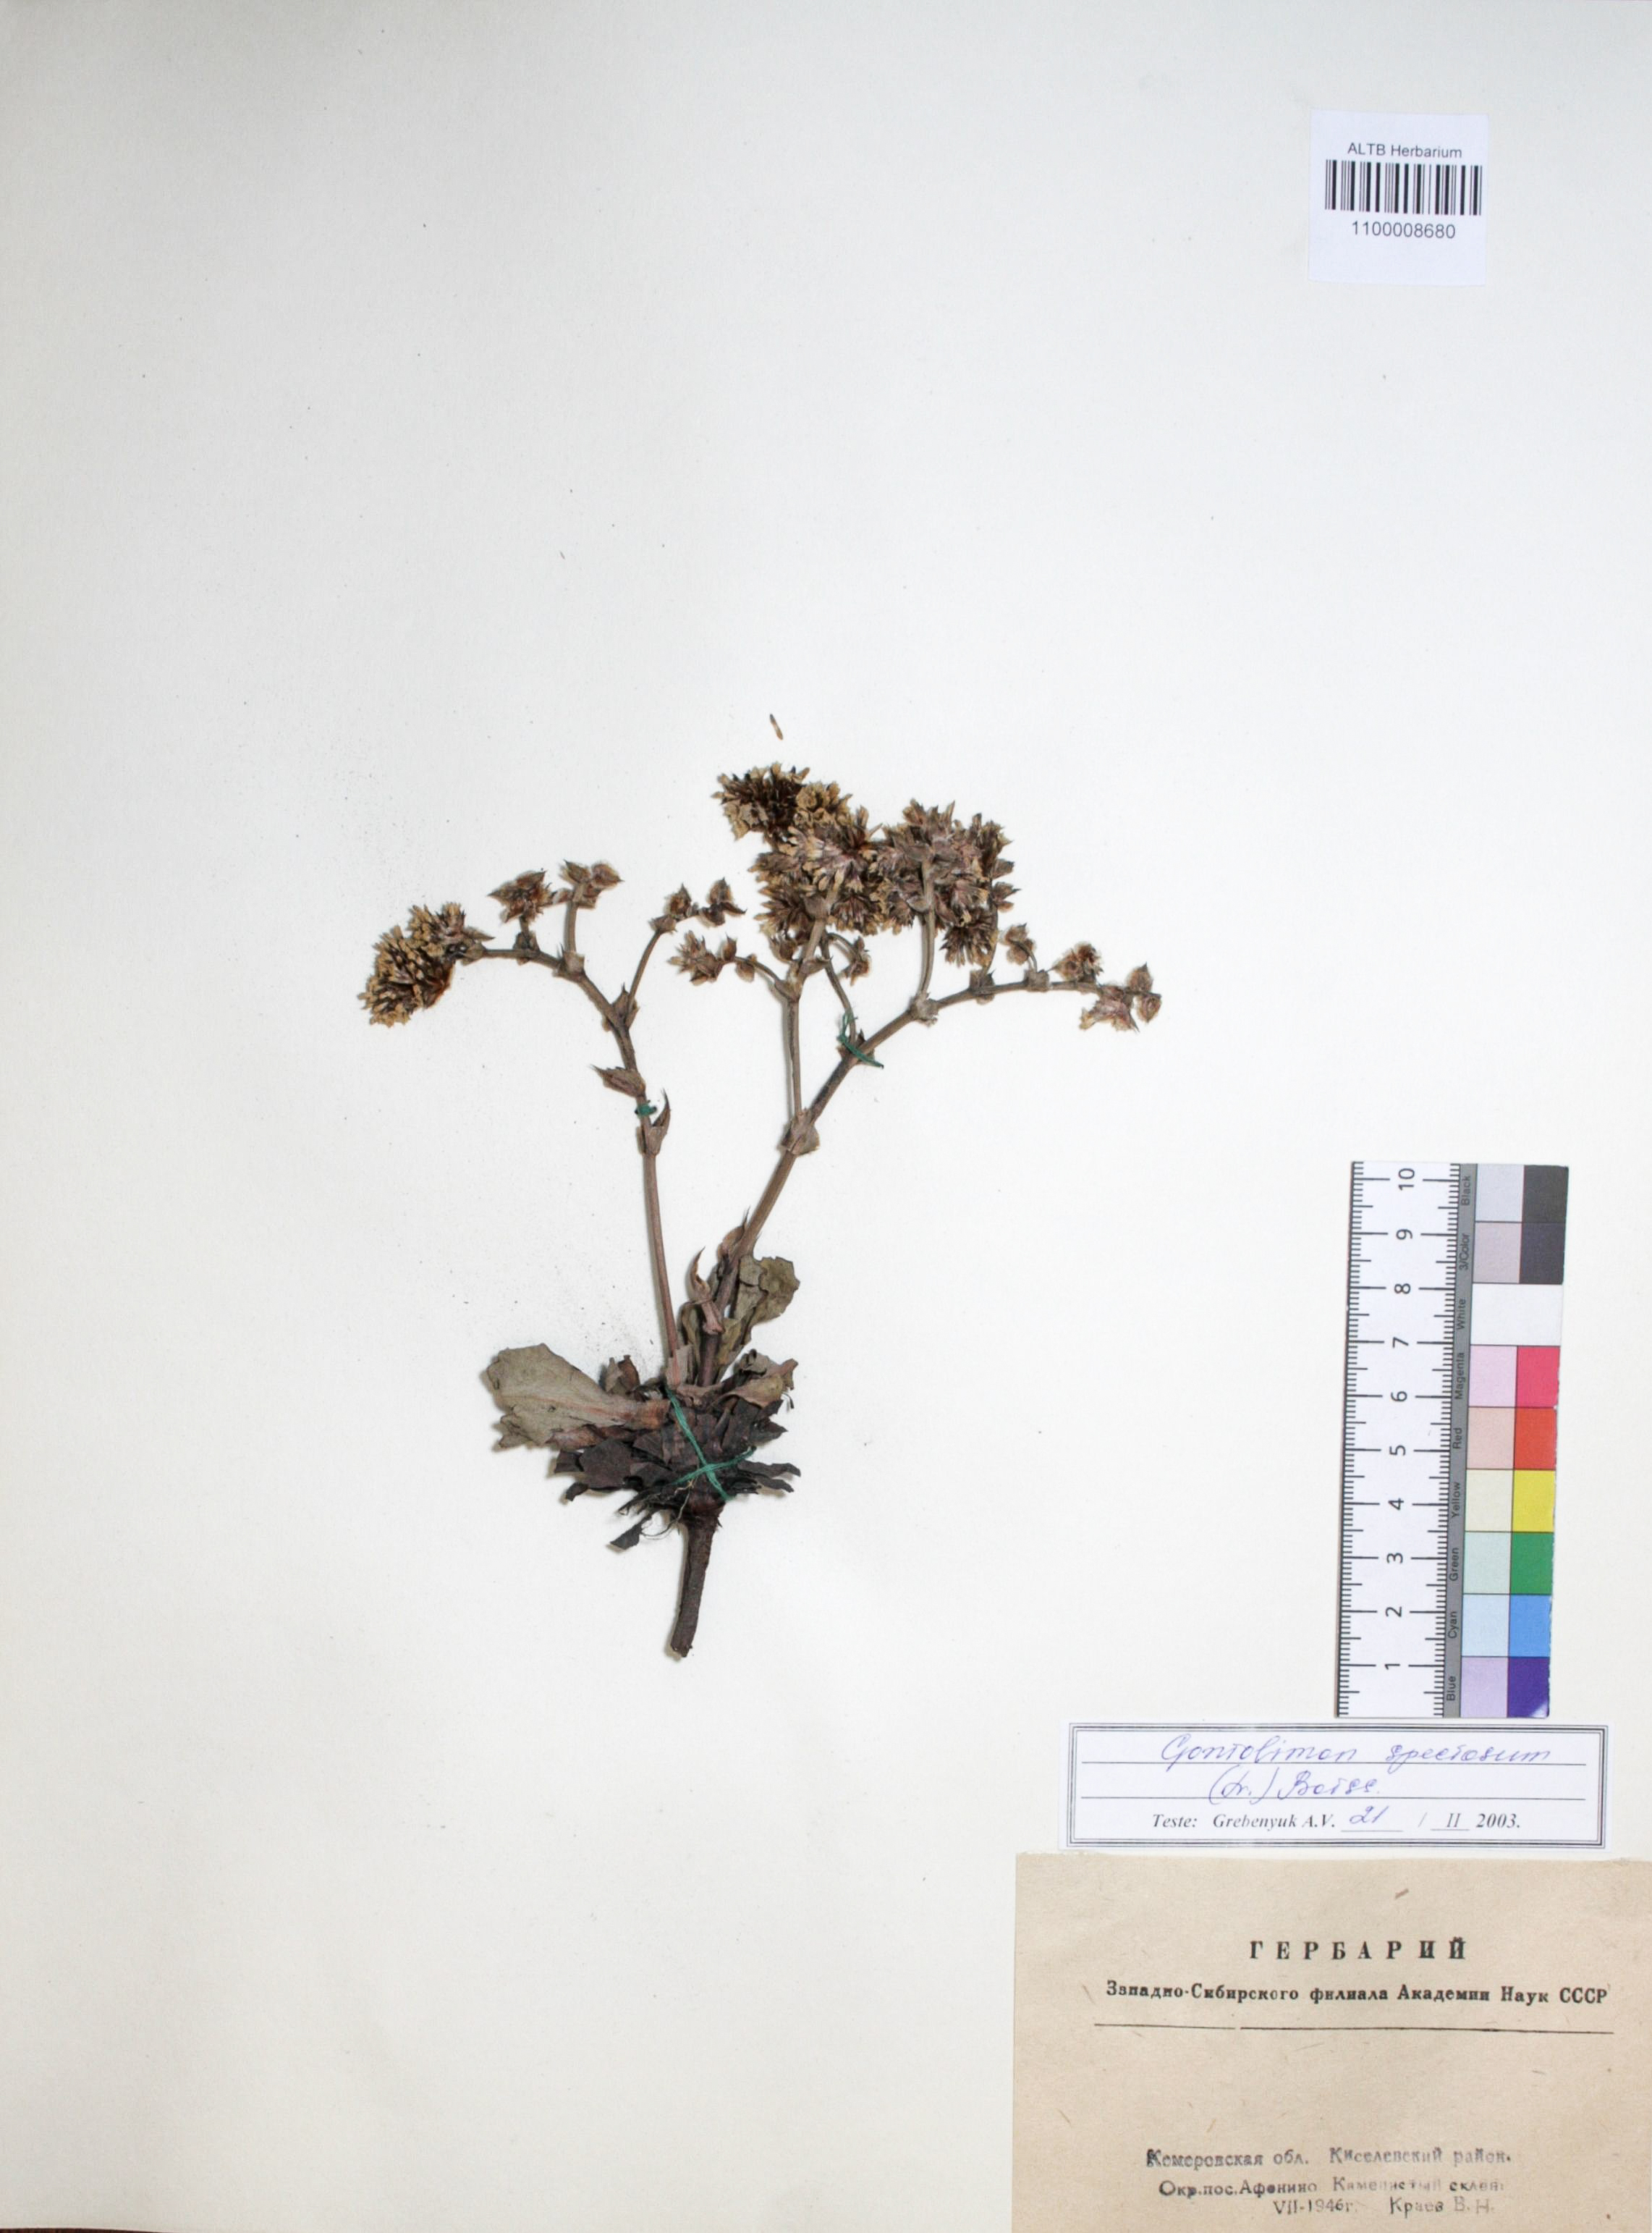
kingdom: Plantae
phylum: Tracheophyta
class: Magnoliopsida
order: Caryophyllales
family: Plumbaginaceae
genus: Goniolimon
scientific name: Goniolimon speciosum
